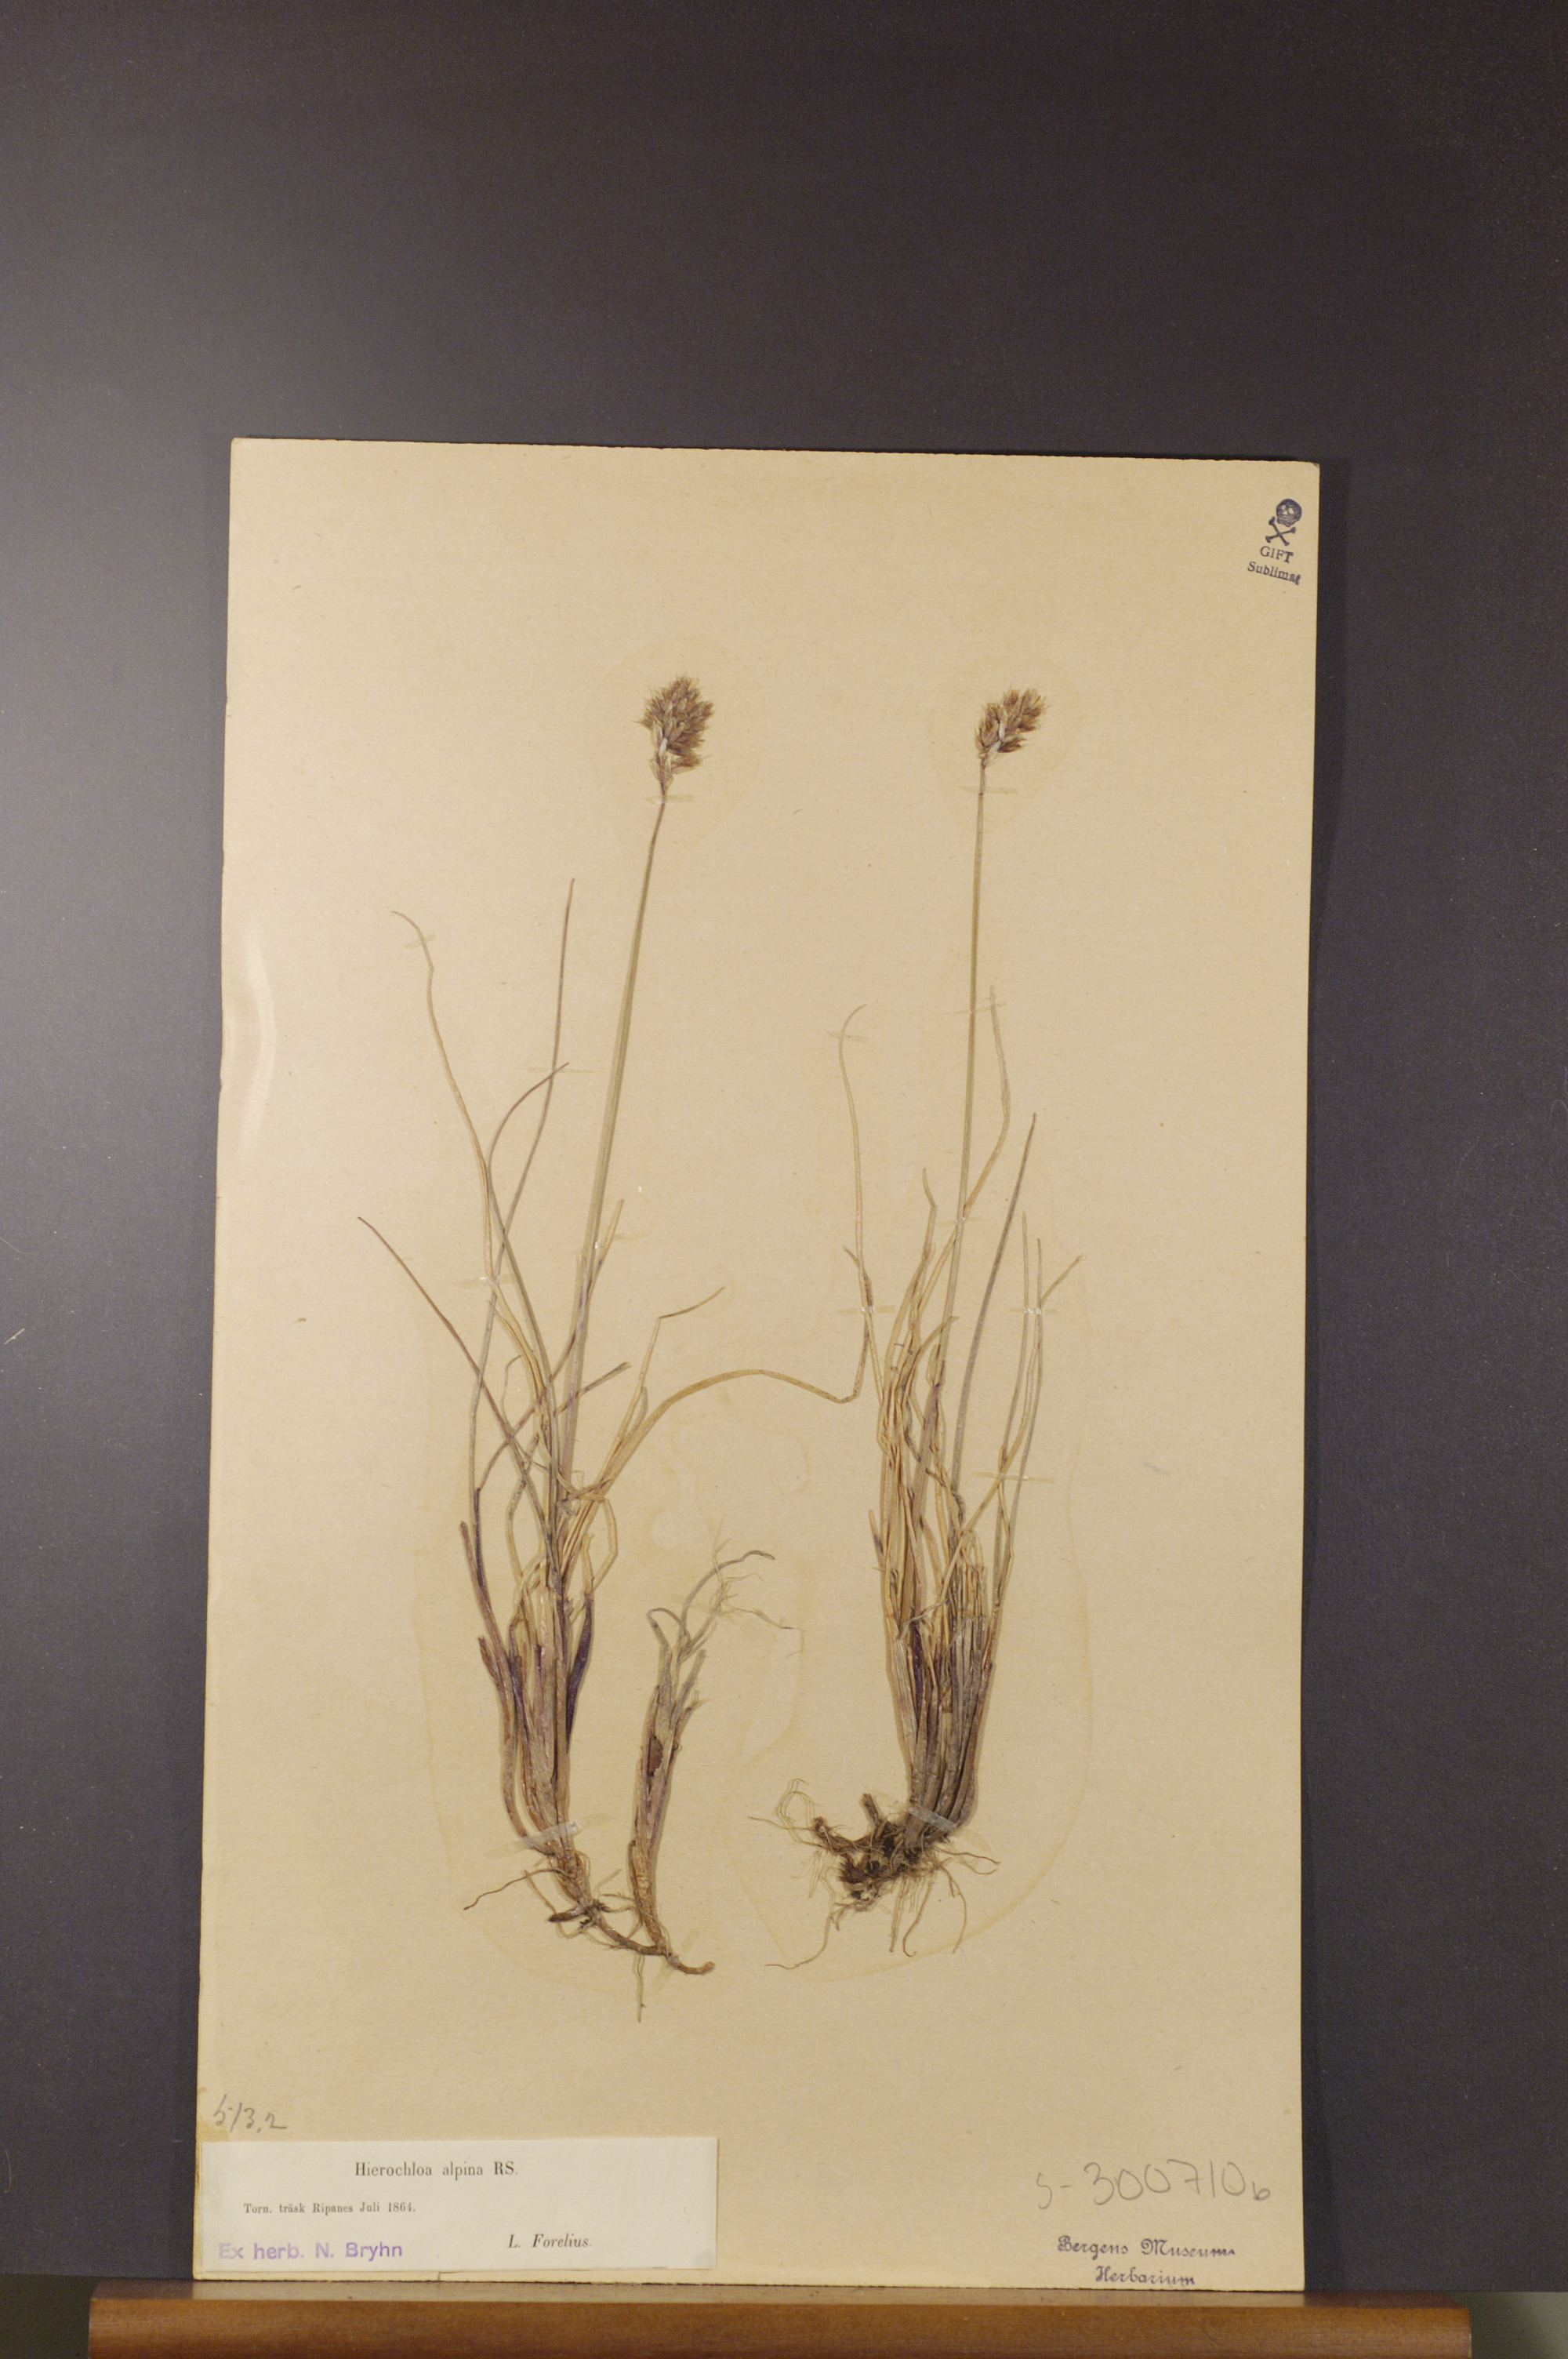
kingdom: Plantae
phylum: Tracheophyta
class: Liliopsida
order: Poales
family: Poaceae
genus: Anthoxanthum
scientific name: Anthoxanthum monticola
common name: Alpine sweetgrass
